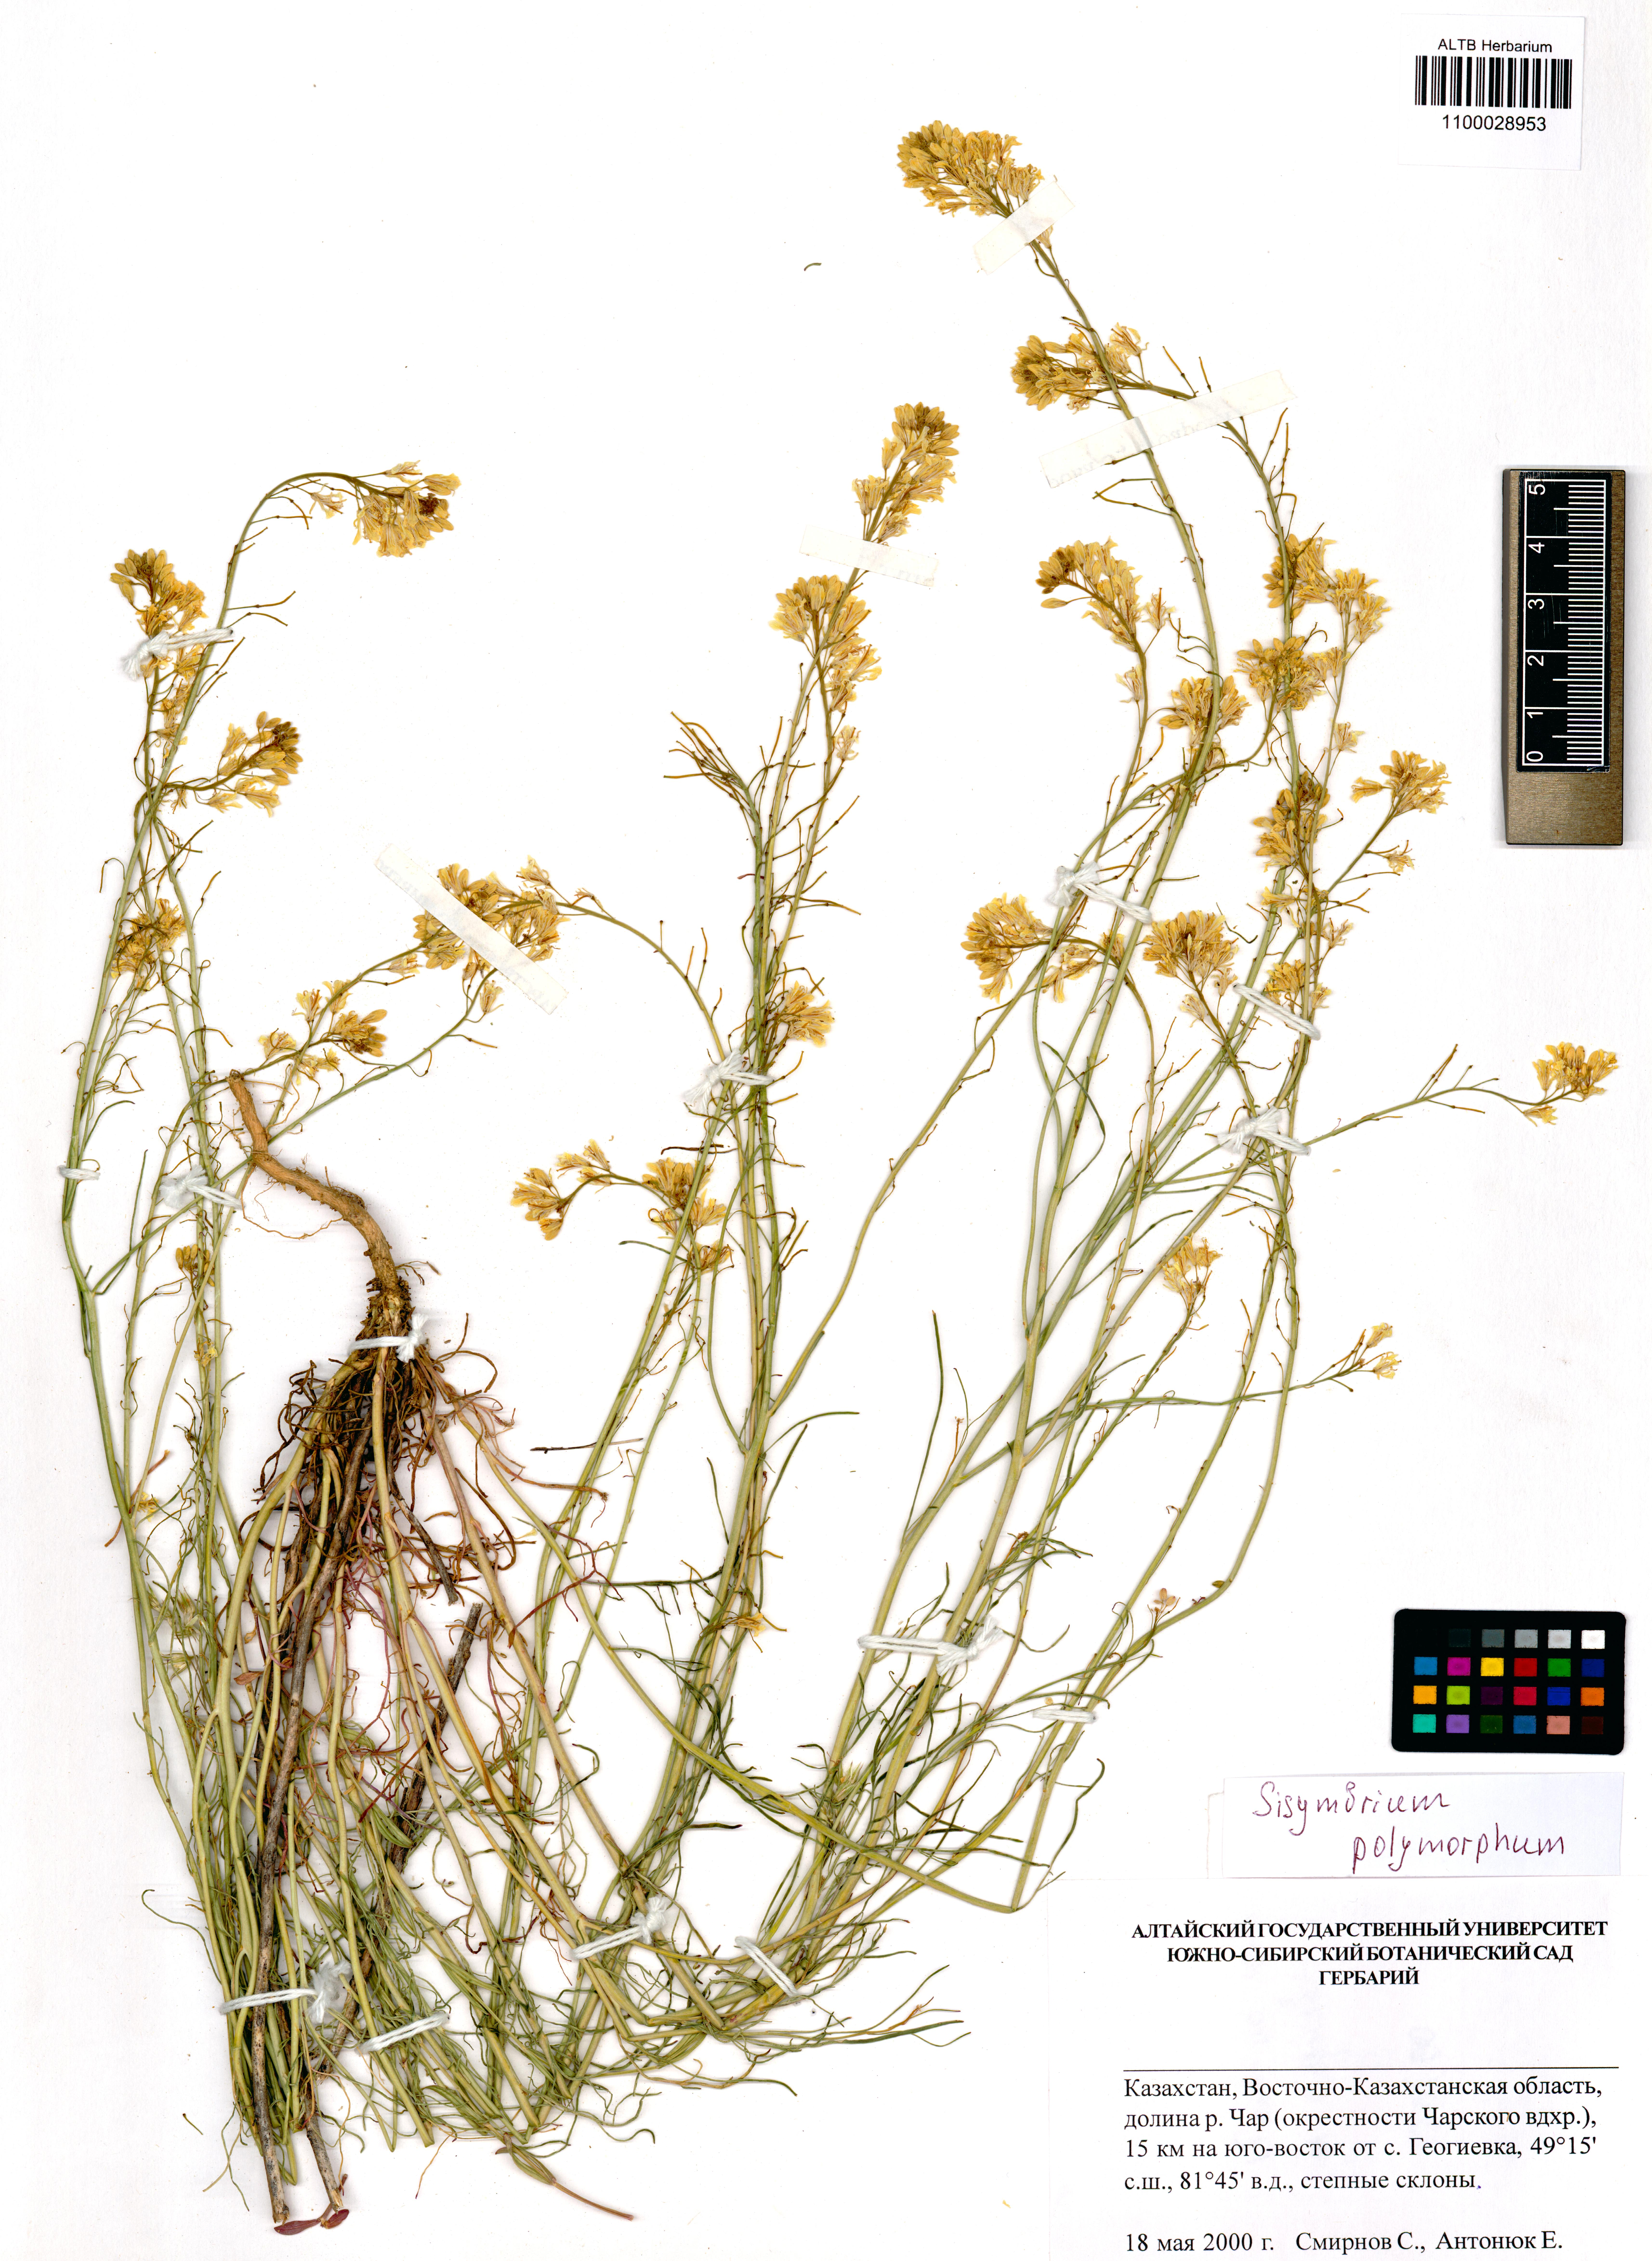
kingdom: Plantae
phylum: Tracheophyta
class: Magnoliopsida
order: Brassicales
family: Brassicaceae
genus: Sisymbrium
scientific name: Sisymbrium polymorphum
